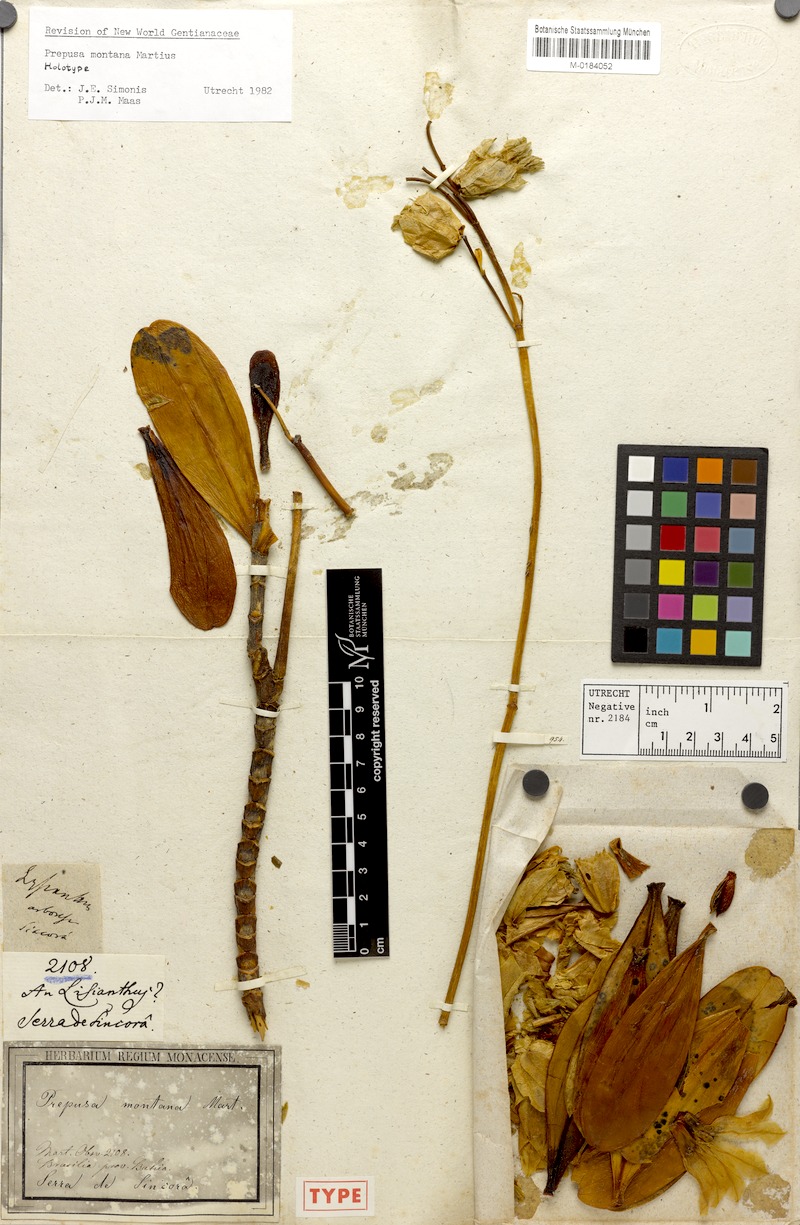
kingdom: Plantae
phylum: Tracheophyta
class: Magnoliopsida
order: Gentianales
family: Gentianaceae
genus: Prepusa
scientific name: Prepusa montana
